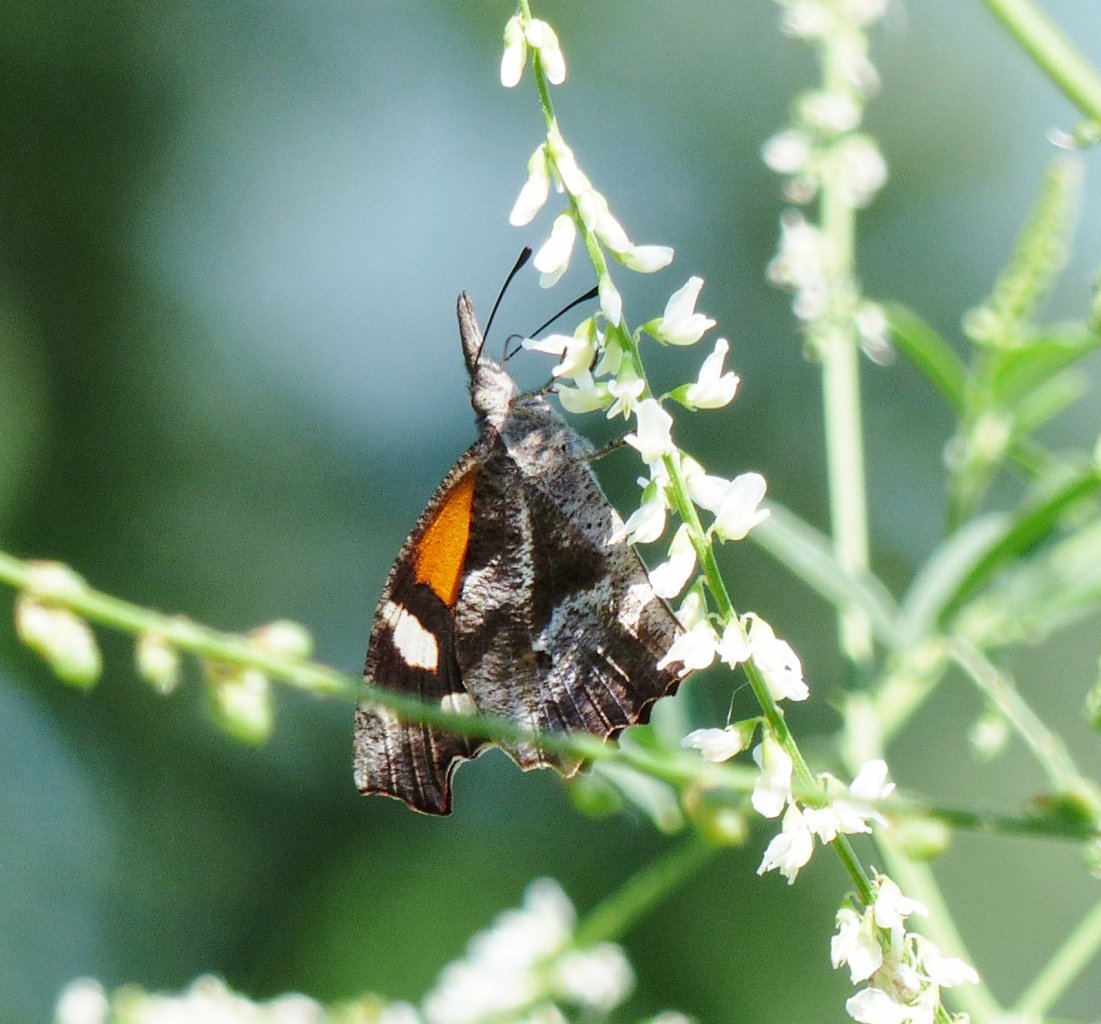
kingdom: Animalia
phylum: Arthropoda
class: Insecta
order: Lepidoptera
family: Nymphalidae
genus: Libytheana
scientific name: Libytheana carinenta
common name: American Snout
